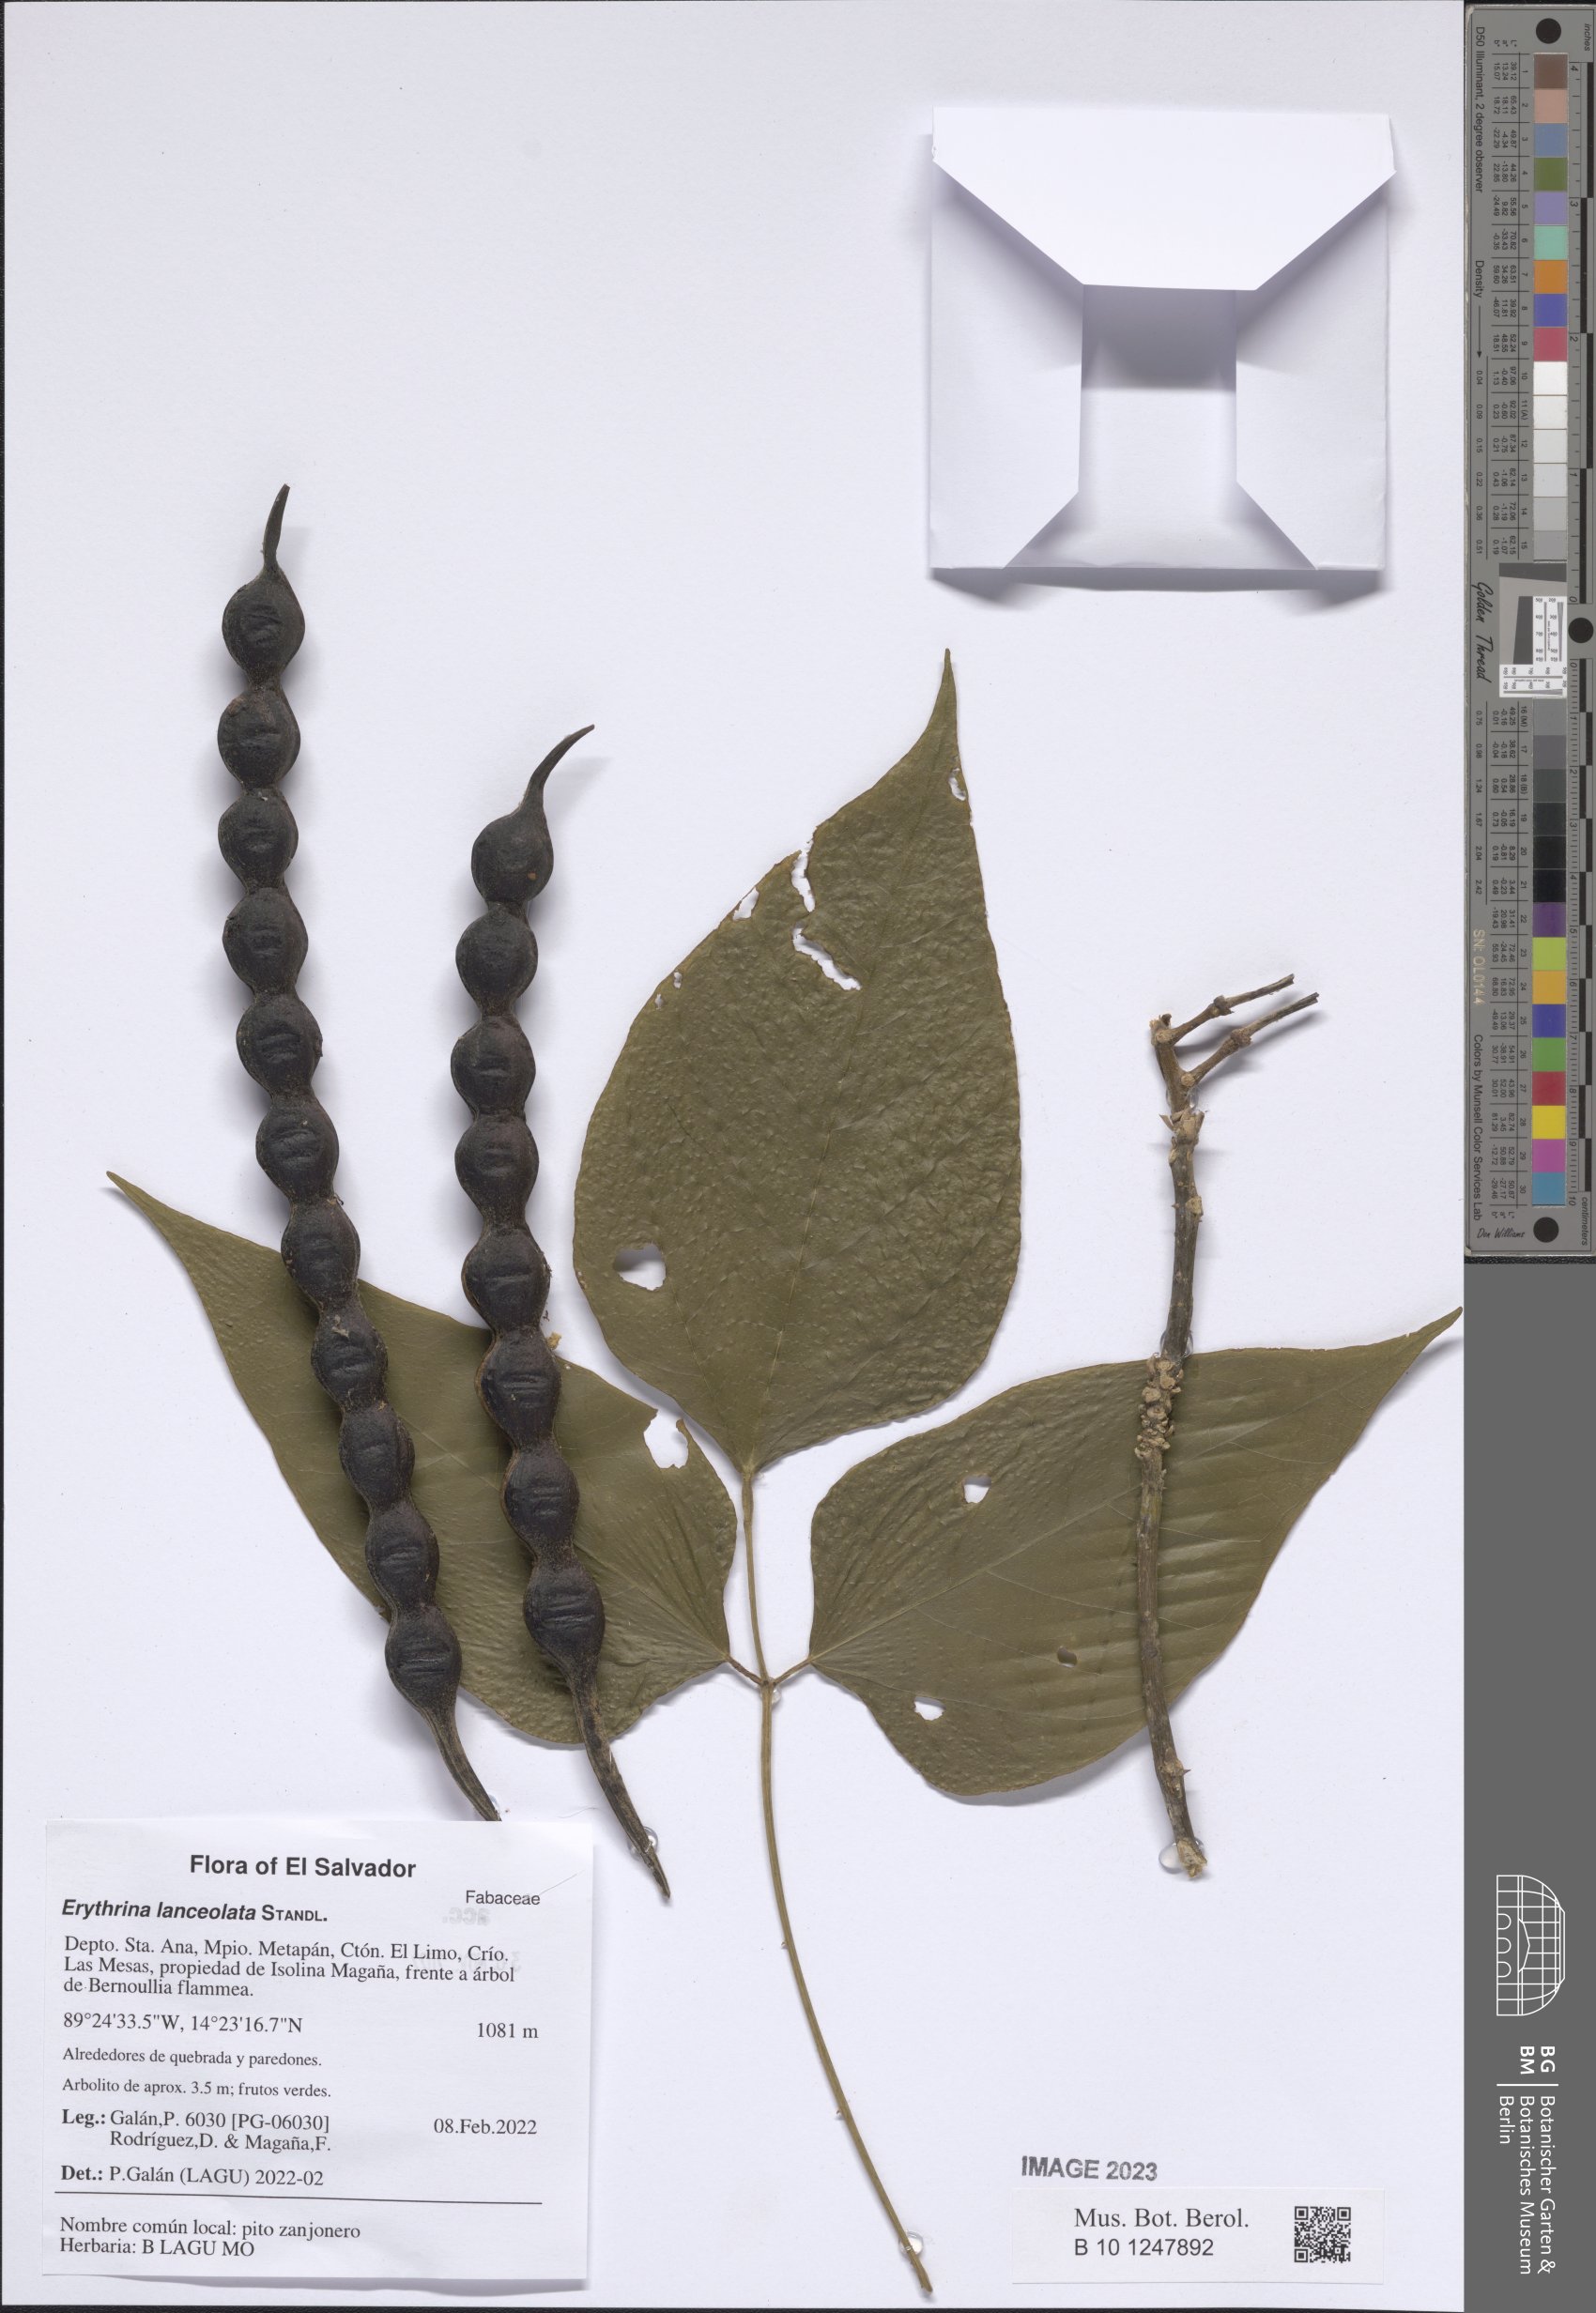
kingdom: Plantae
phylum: Tracheophyta
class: Magnoliopsida
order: Fabales
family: Fabaceae
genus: Erythrina
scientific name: Erythrina lanceolata
